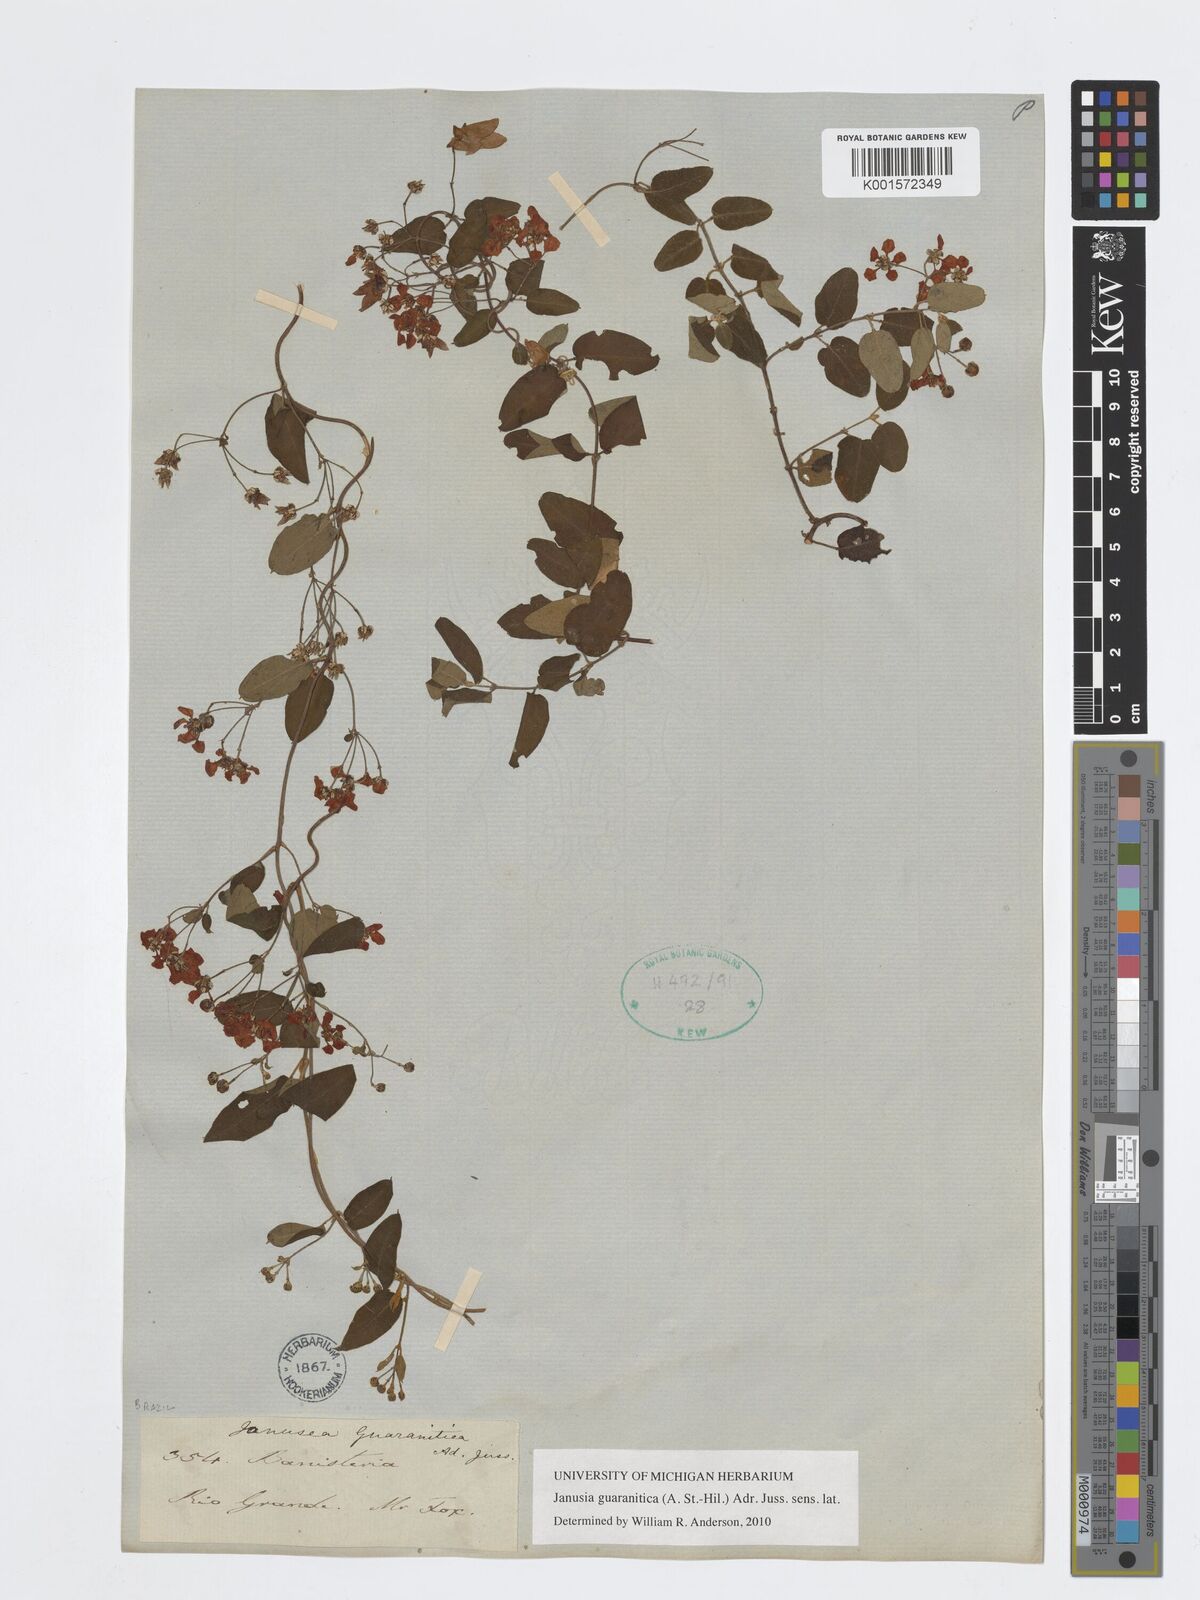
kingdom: Plantae
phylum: Tracheophyta
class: Magnoliopsida
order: Malpighiales
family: Malpighiaceae
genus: Janusia
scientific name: Janusia guaranitica
